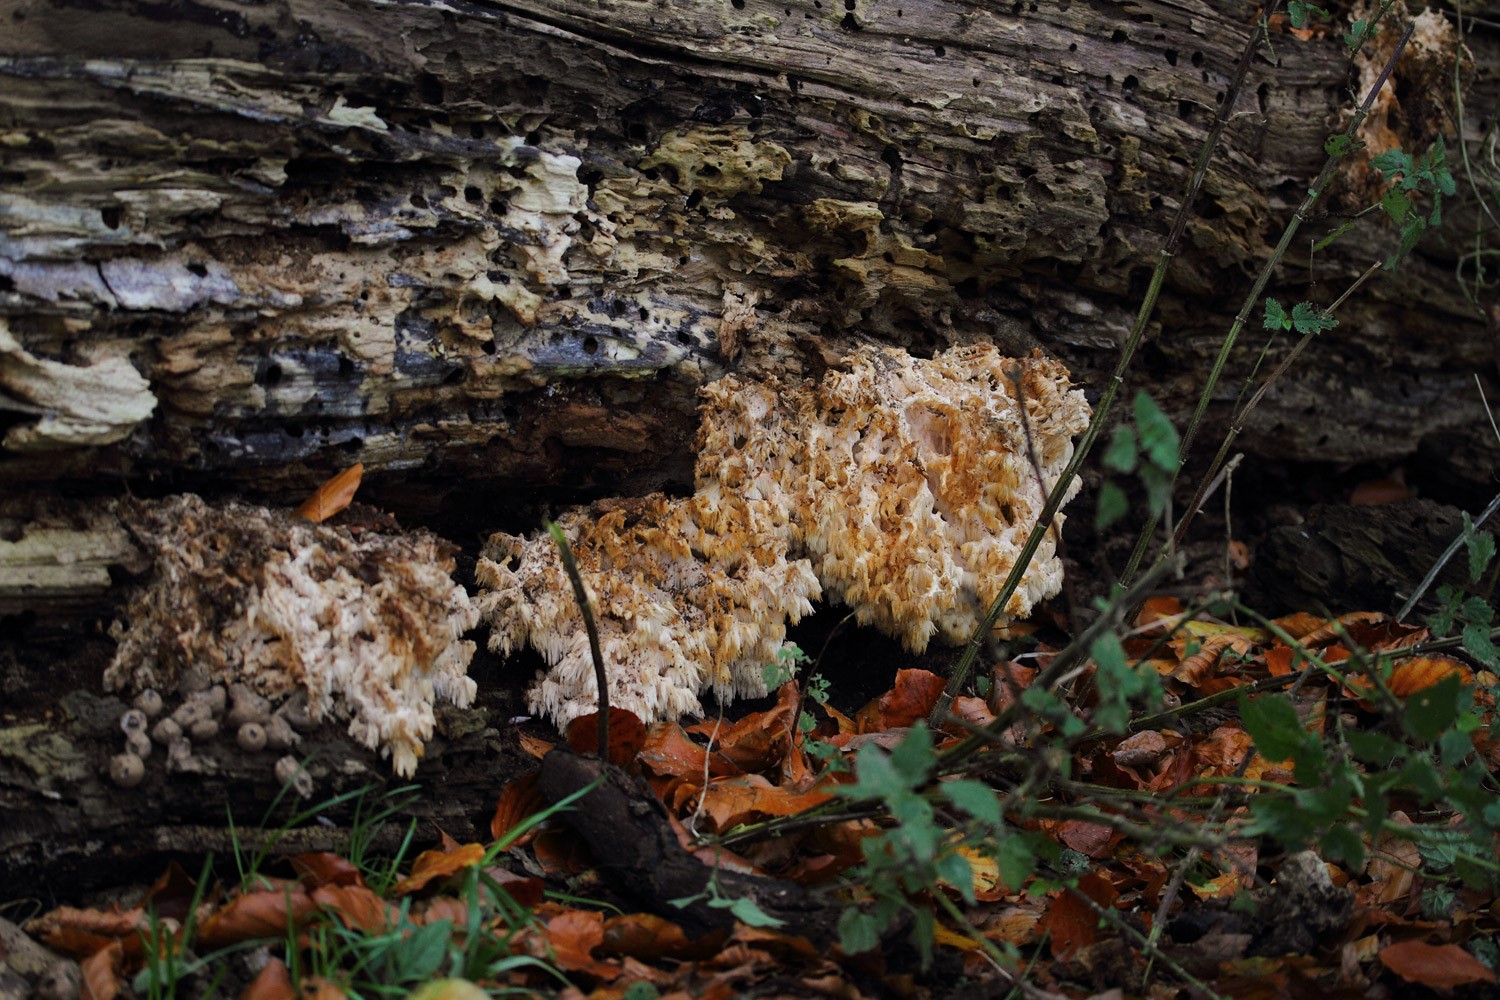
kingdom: Fungi
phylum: Basidiomycota
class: Agaricomycetes
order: Russulales
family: Hericiaceae
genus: Hericium
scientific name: Hericium coralloides
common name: koralpigsvamp
